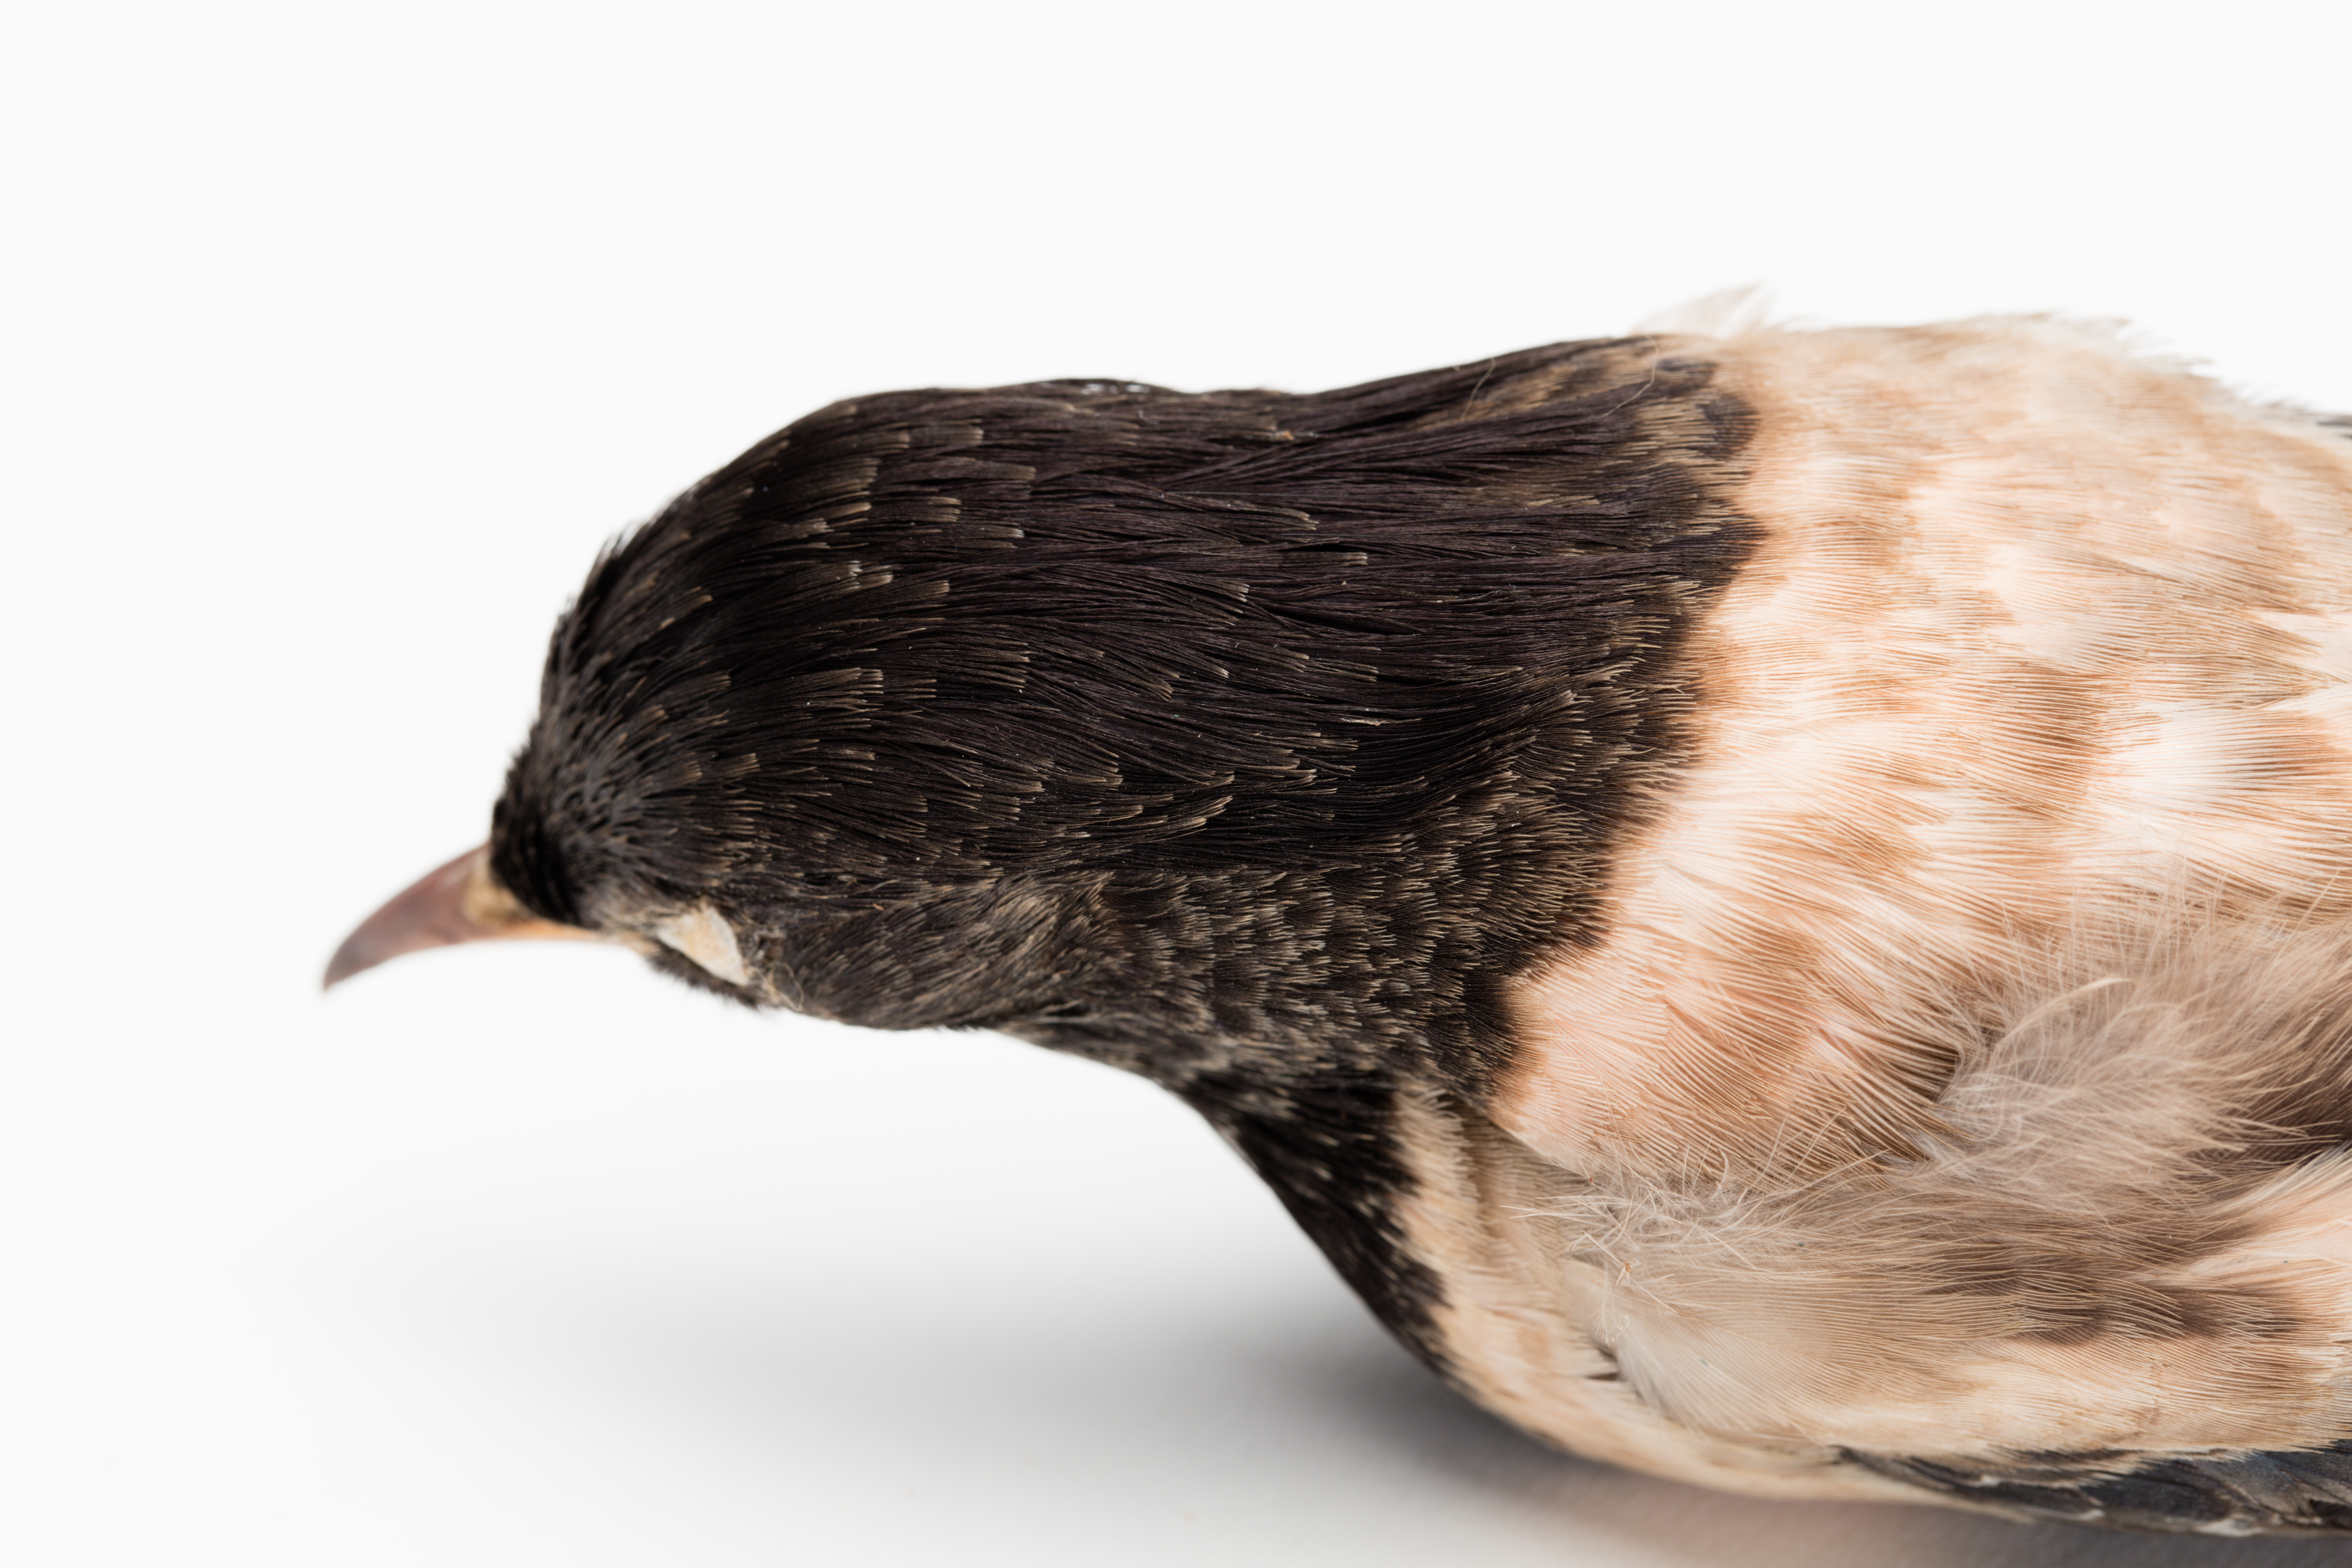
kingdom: Animalia
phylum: Chordata
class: Aves
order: Passeriformes
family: Sturnidae
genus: Pastor
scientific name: Pastor roseus
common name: Rosy starling
